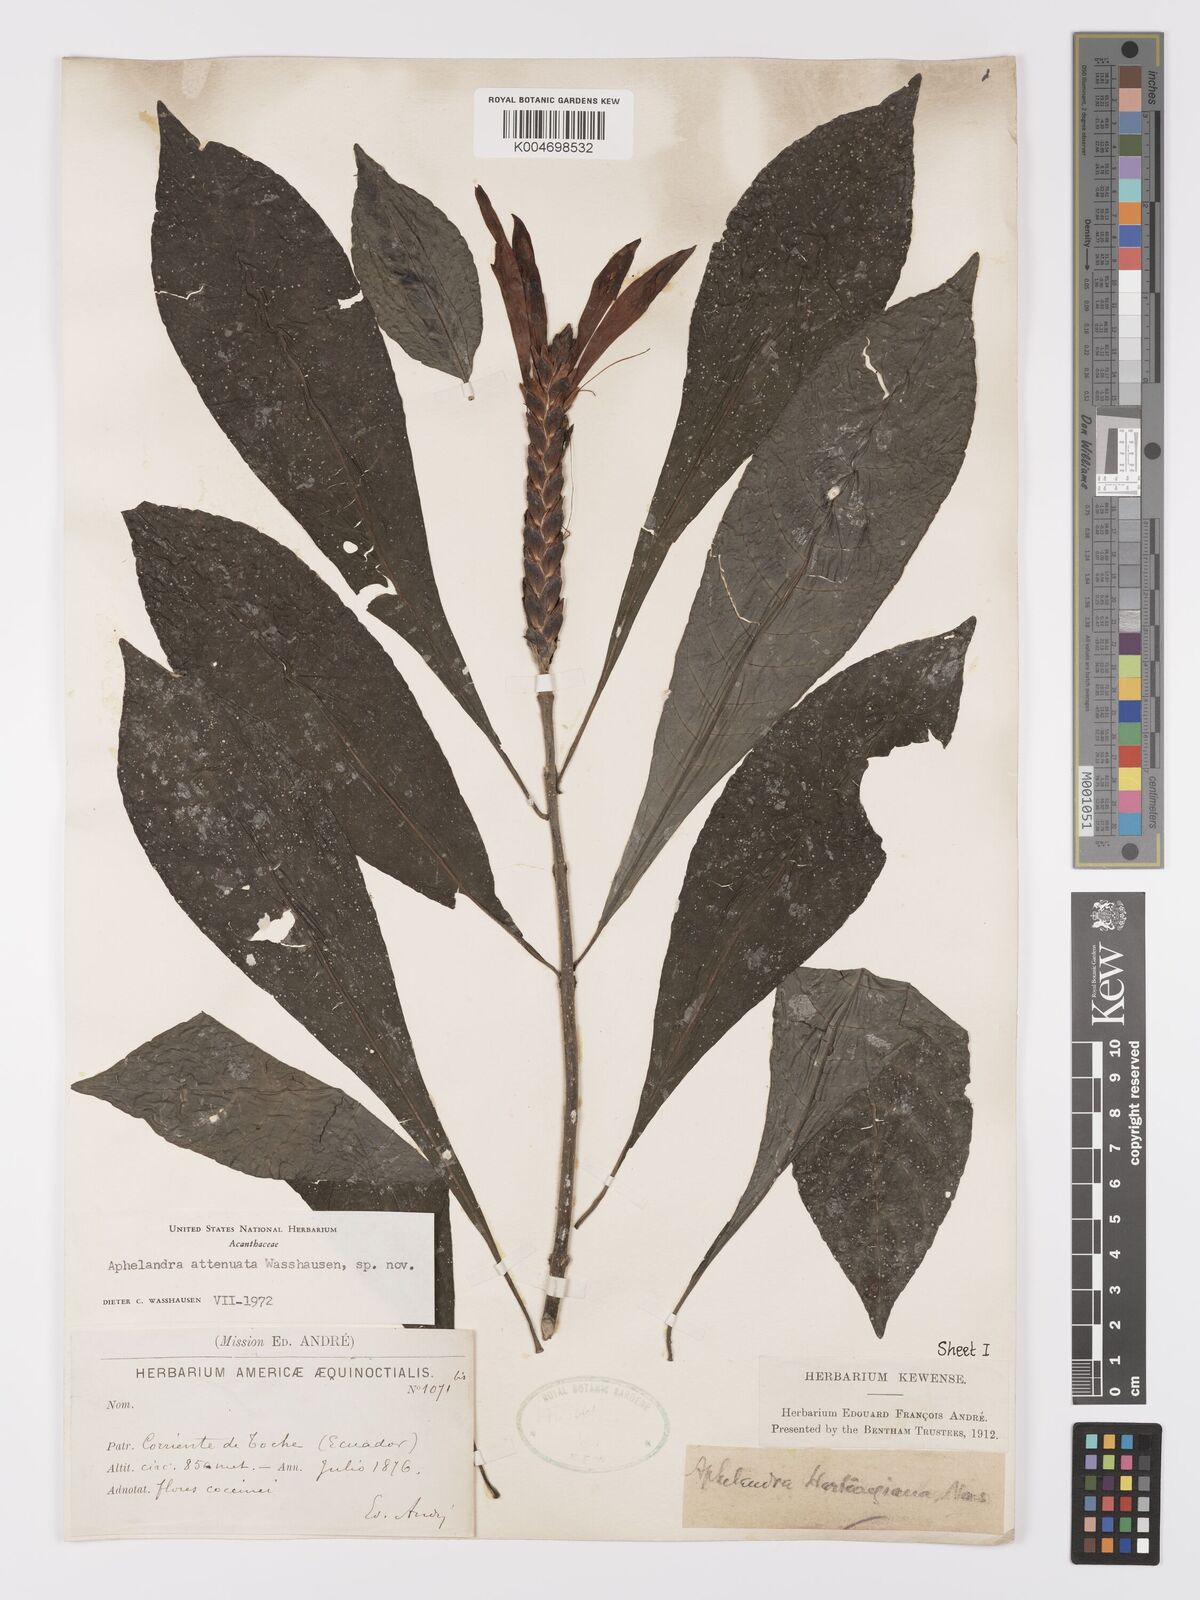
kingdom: Plantae
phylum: Tracheophyta
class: Magnoliopsida
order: Lamiales
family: Acanthaceae
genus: Aphelandra
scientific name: Aphelandra attenuata
